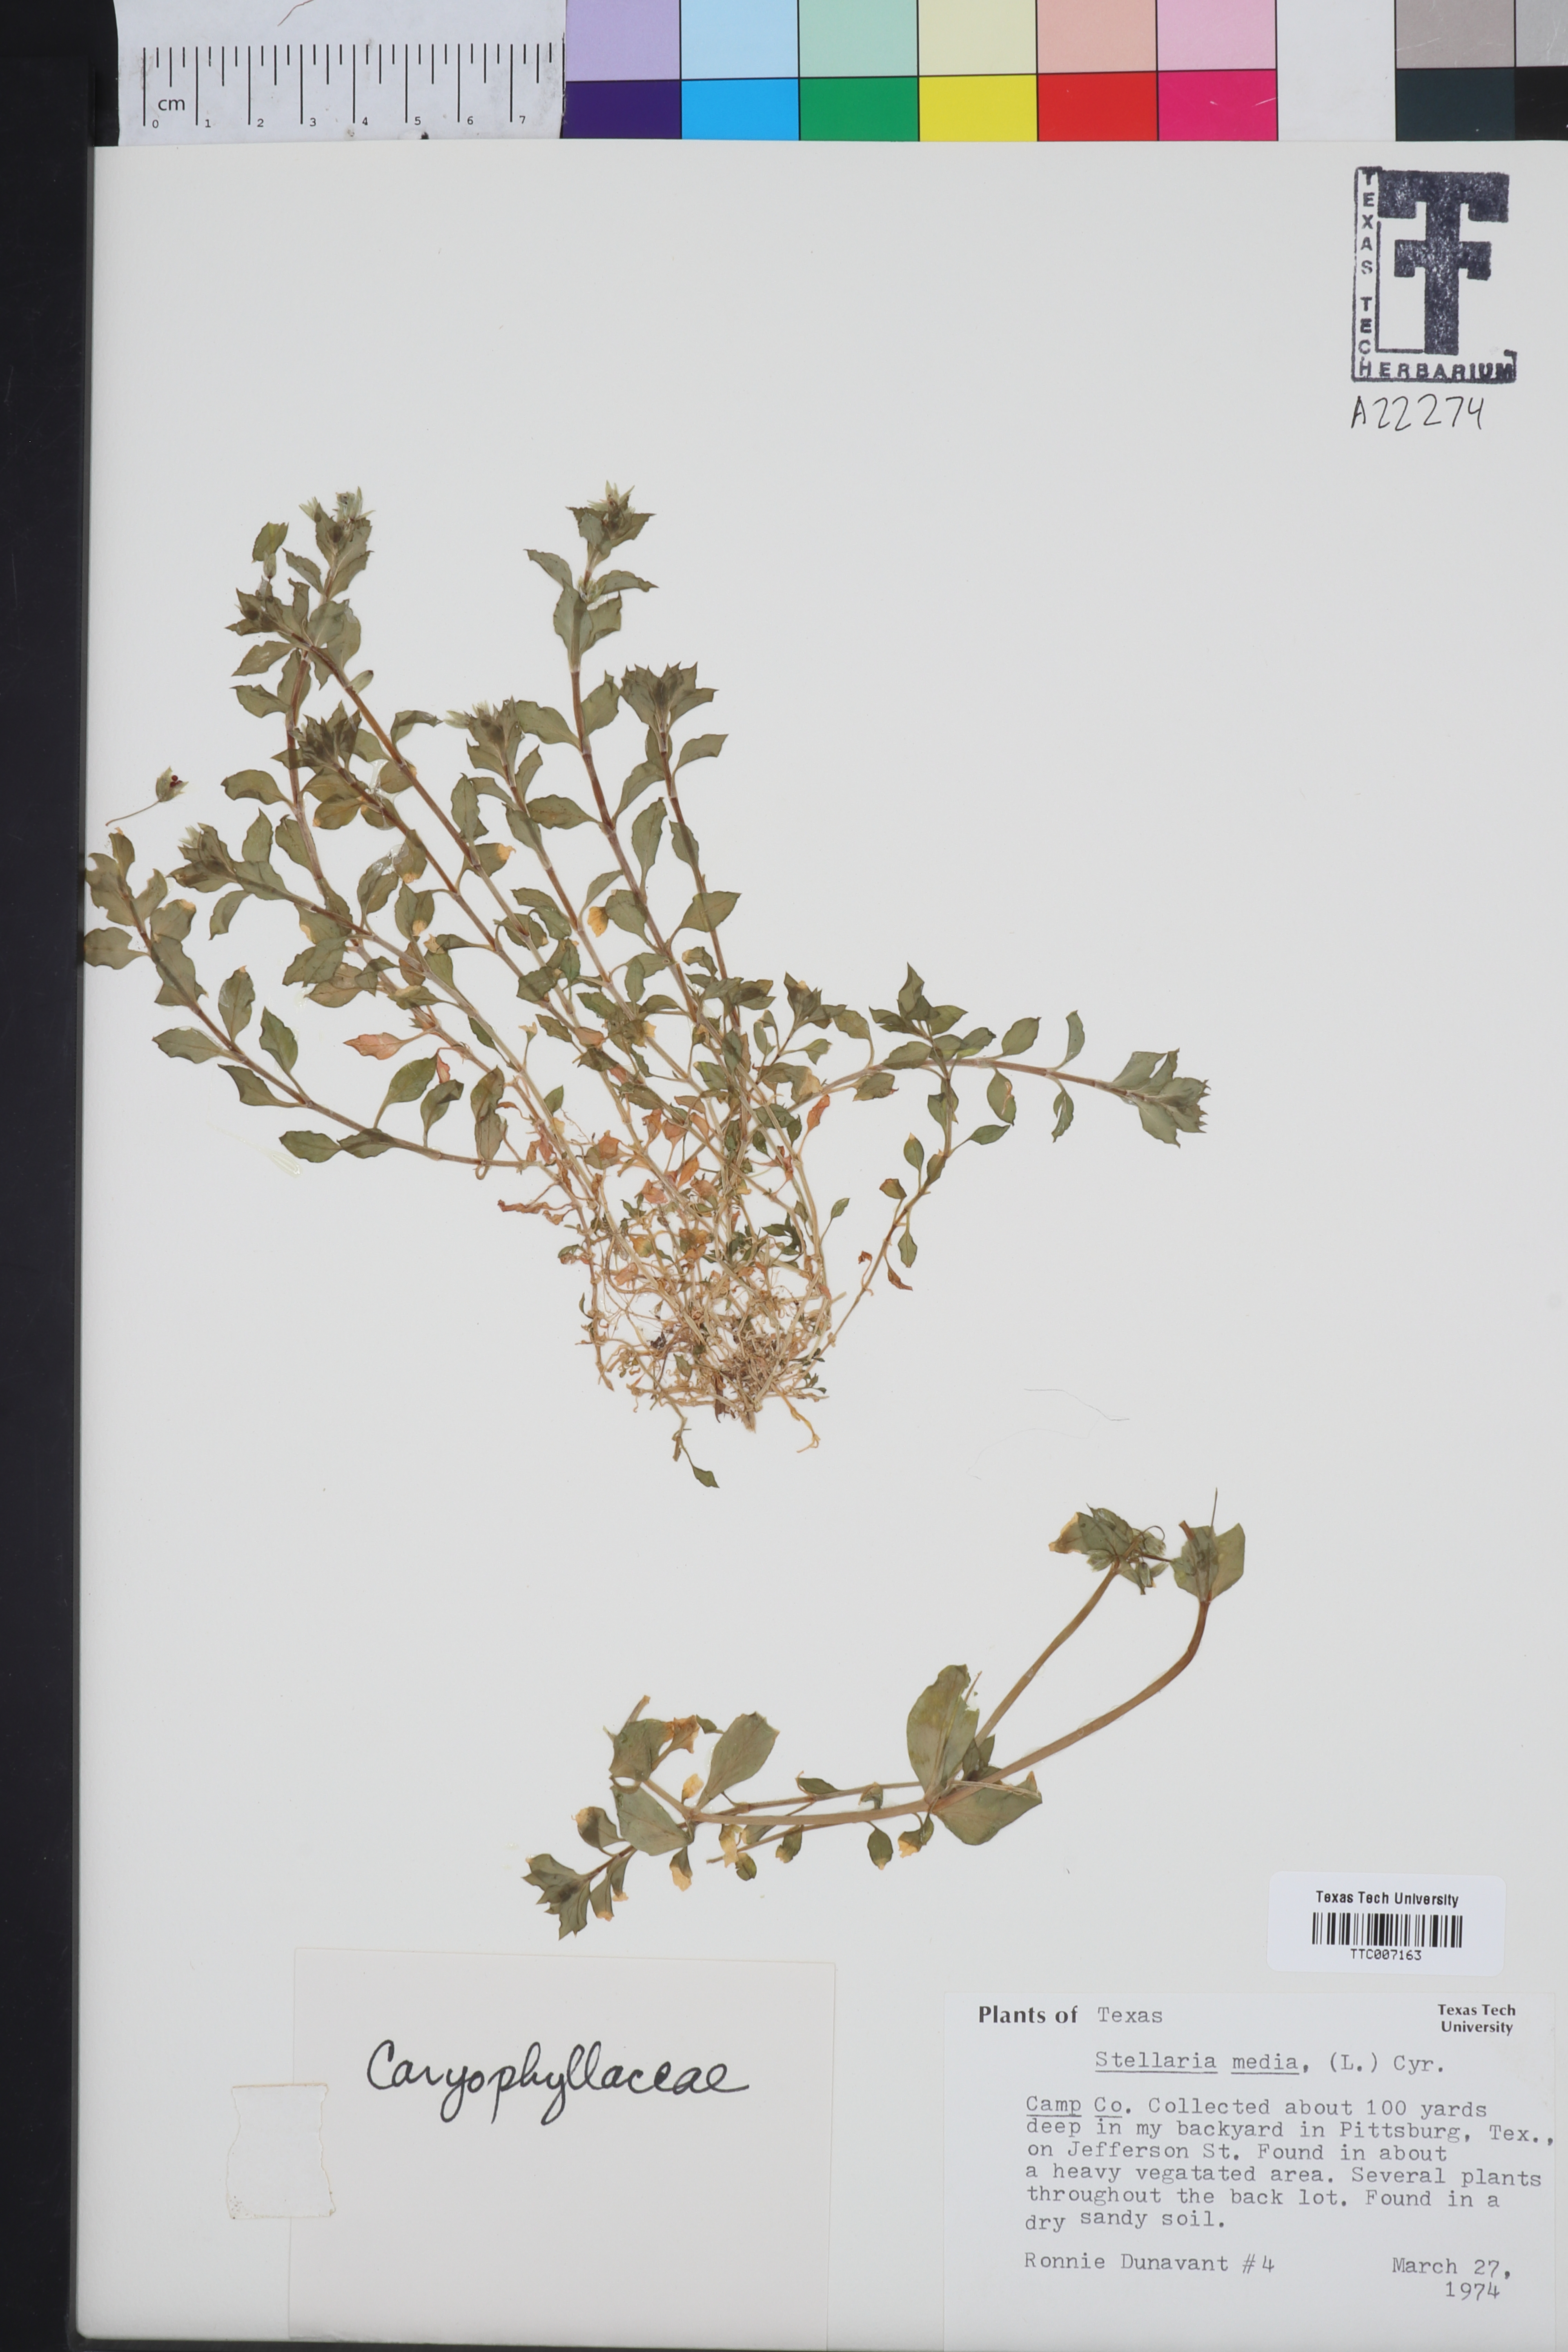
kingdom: Plantae
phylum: Tracheophyta
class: Magnoliopsida
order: Caryophyllales
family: Caryophyllaceae
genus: Stellaria
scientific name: Stellaria media
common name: Common chickweed
